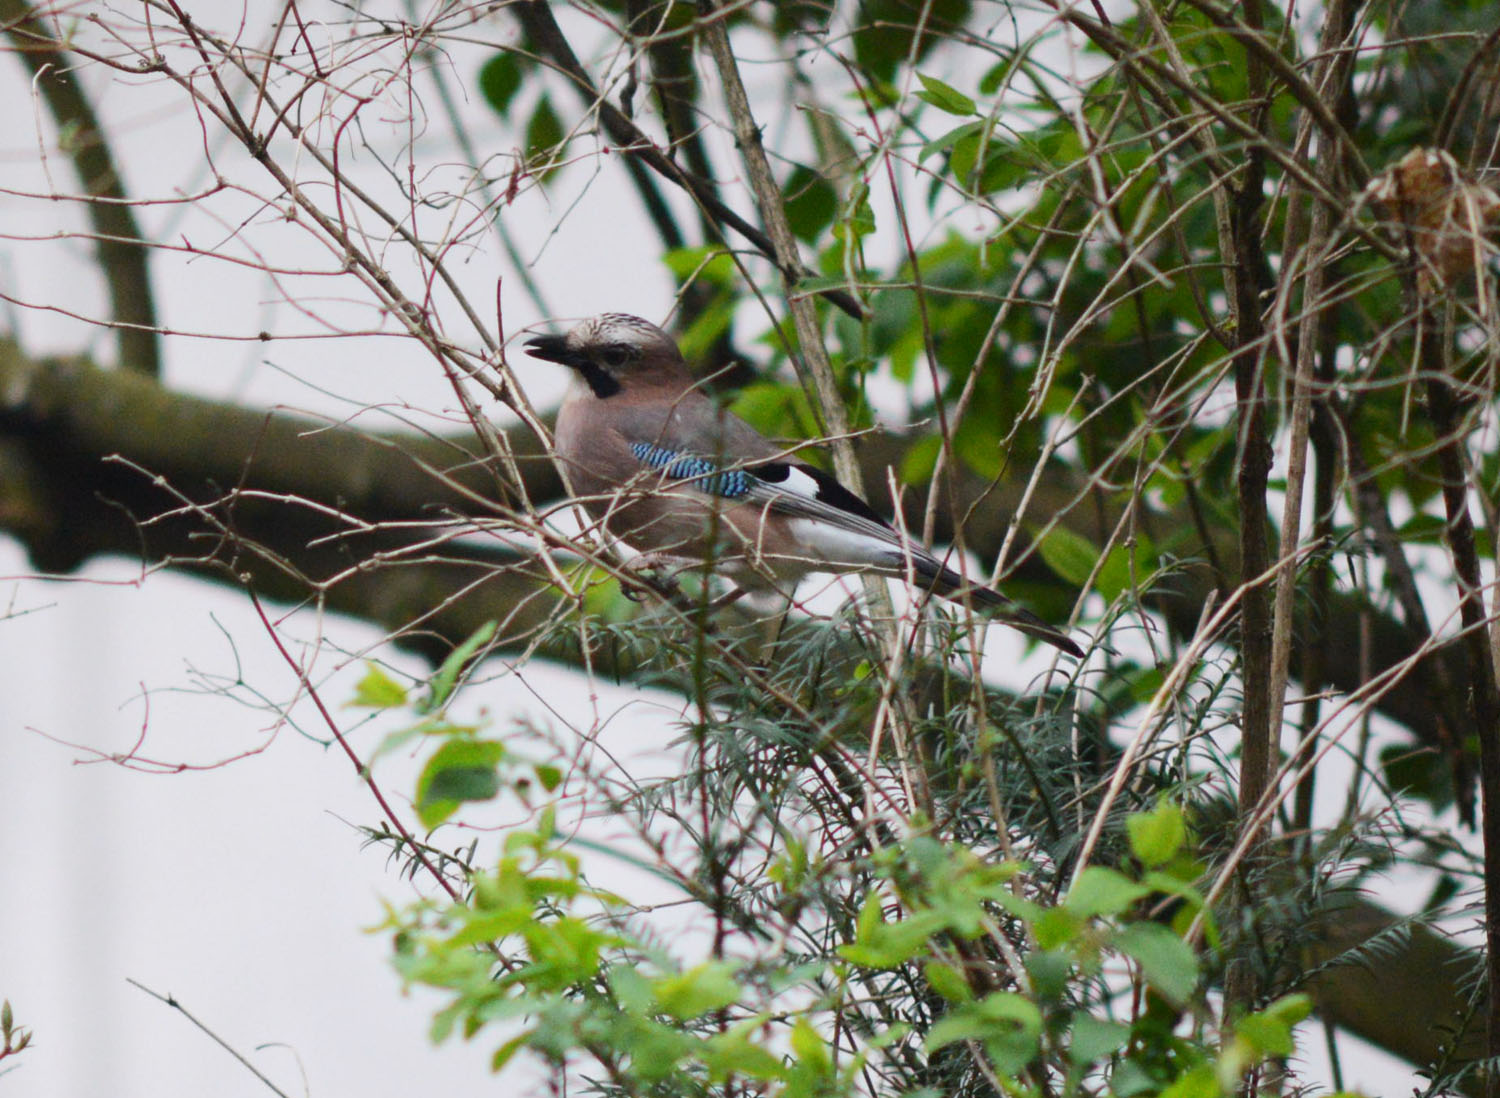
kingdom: Animalia
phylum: Chordata
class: Aves
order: Passeriformes
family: Corvidae
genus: Garrulus
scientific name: Garrulus glandarius
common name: Eurasian jay
